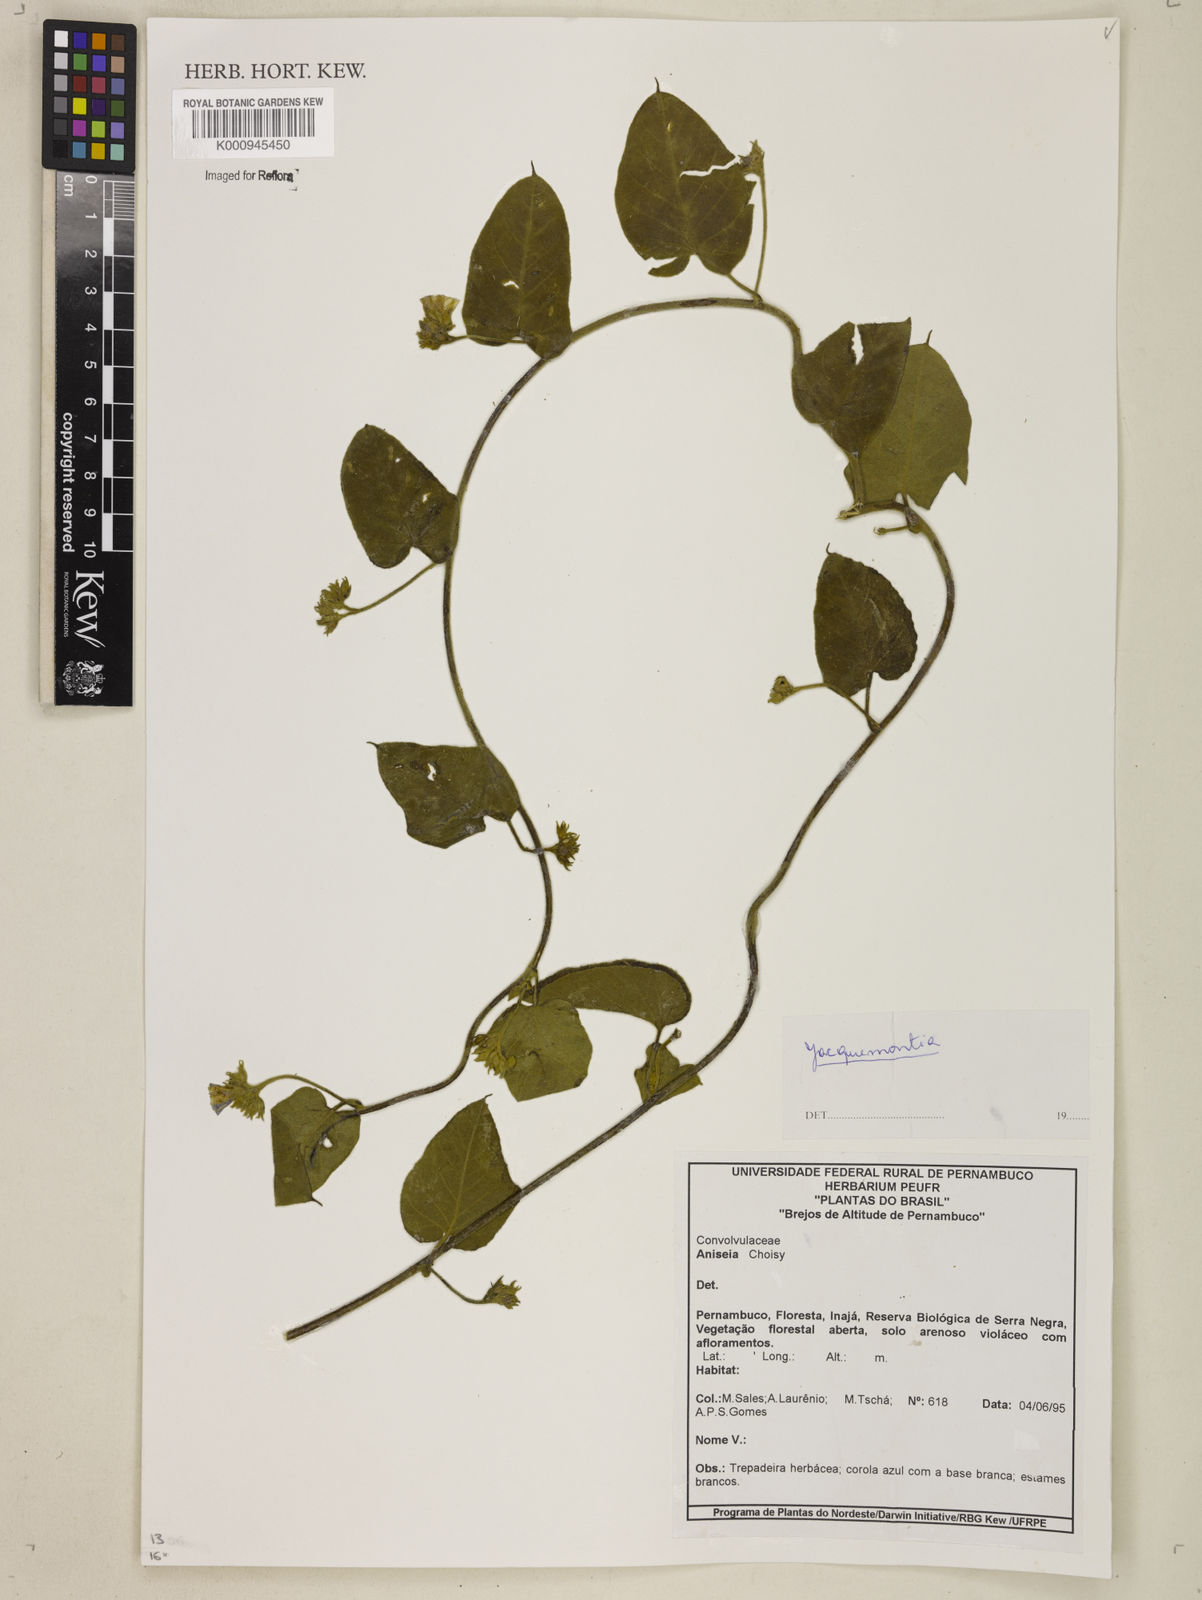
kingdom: Plantae
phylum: Tracheophyta
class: Magnoliopsida
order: Solanales
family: Convolvulaceae
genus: Jacquemontia
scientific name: Jacquemontia
